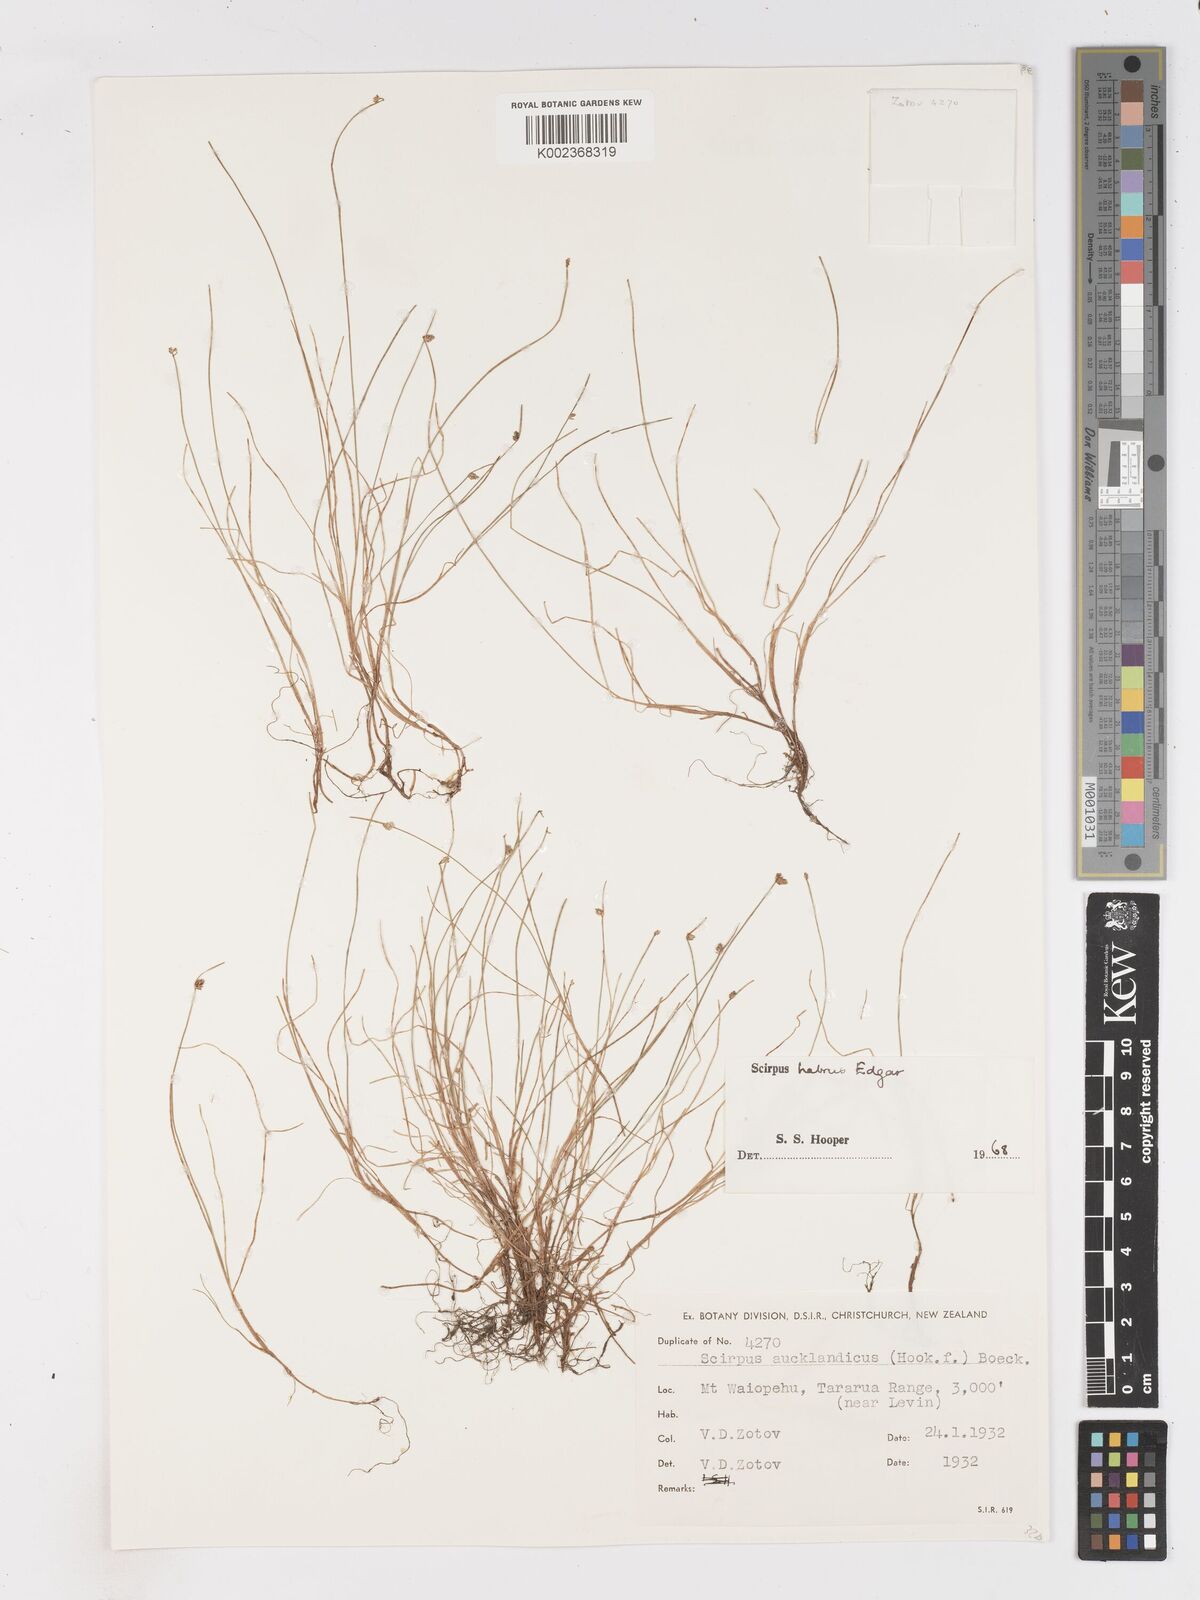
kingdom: Plantae
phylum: Tracheophyta
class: Liliopsida
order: Poales
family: Cyperaceae
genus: Isolepis
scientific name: Isolepis habra
